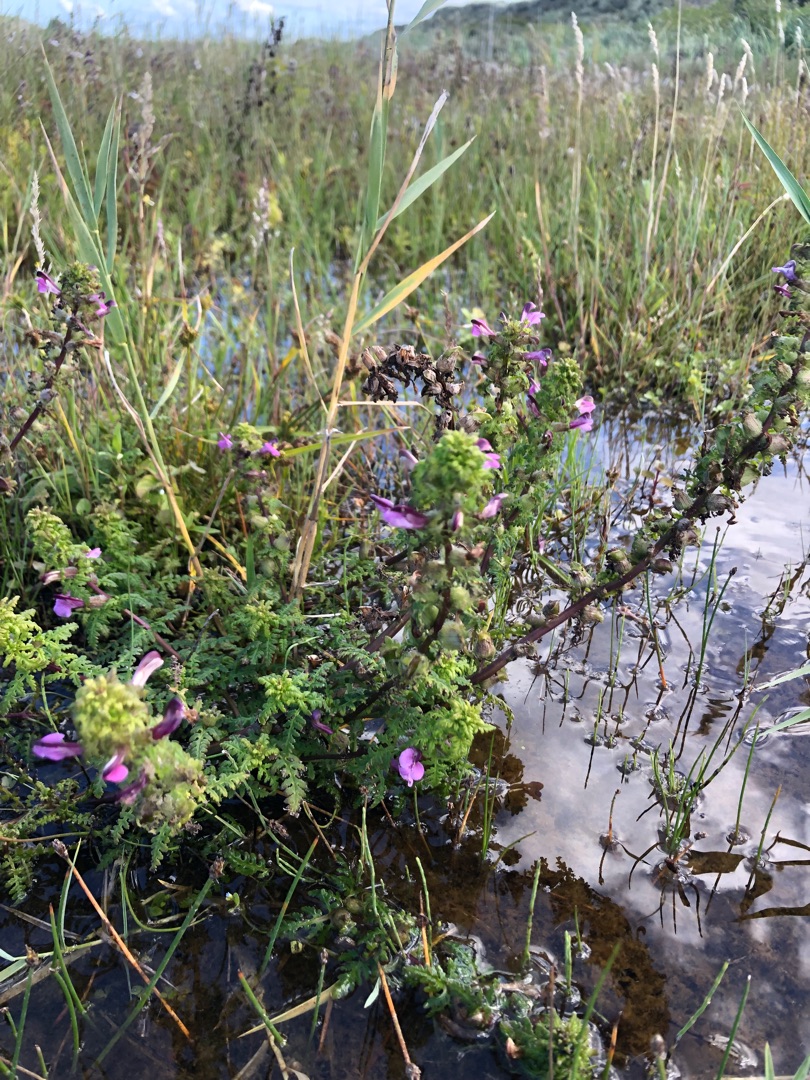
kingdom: Plantae
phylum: Tracheophyta
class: Magnoliopsida
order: Lamiales
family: Orobanchaceae
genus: Pedicularis
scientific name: Pedicularis palustris
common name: Eng-troldurt
